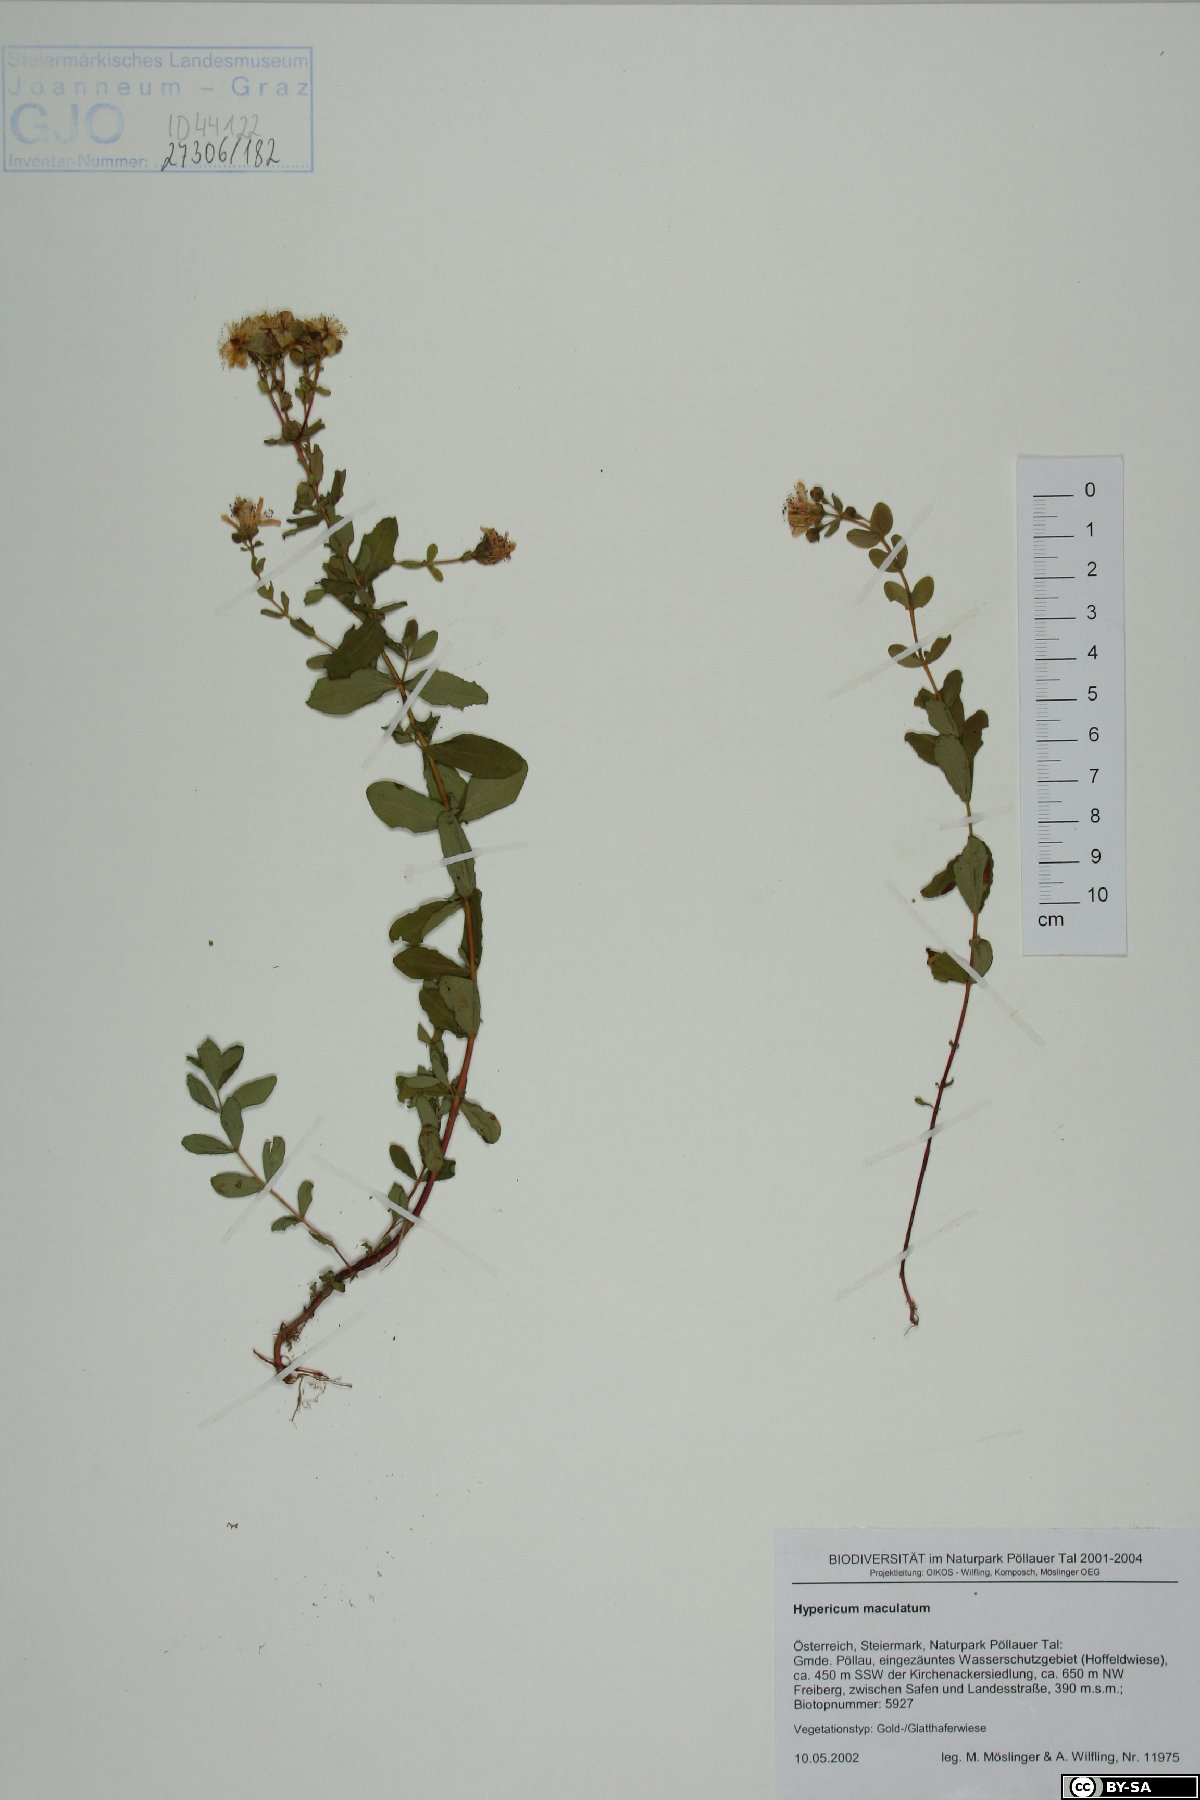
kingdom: Plantae
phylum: Tracheophyta
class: Magnoliopsida
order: Malpighiales
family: Hypericaceae
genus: Hypericum
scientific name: Hypericum maculatum
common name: Imperforate st. john's-wort
